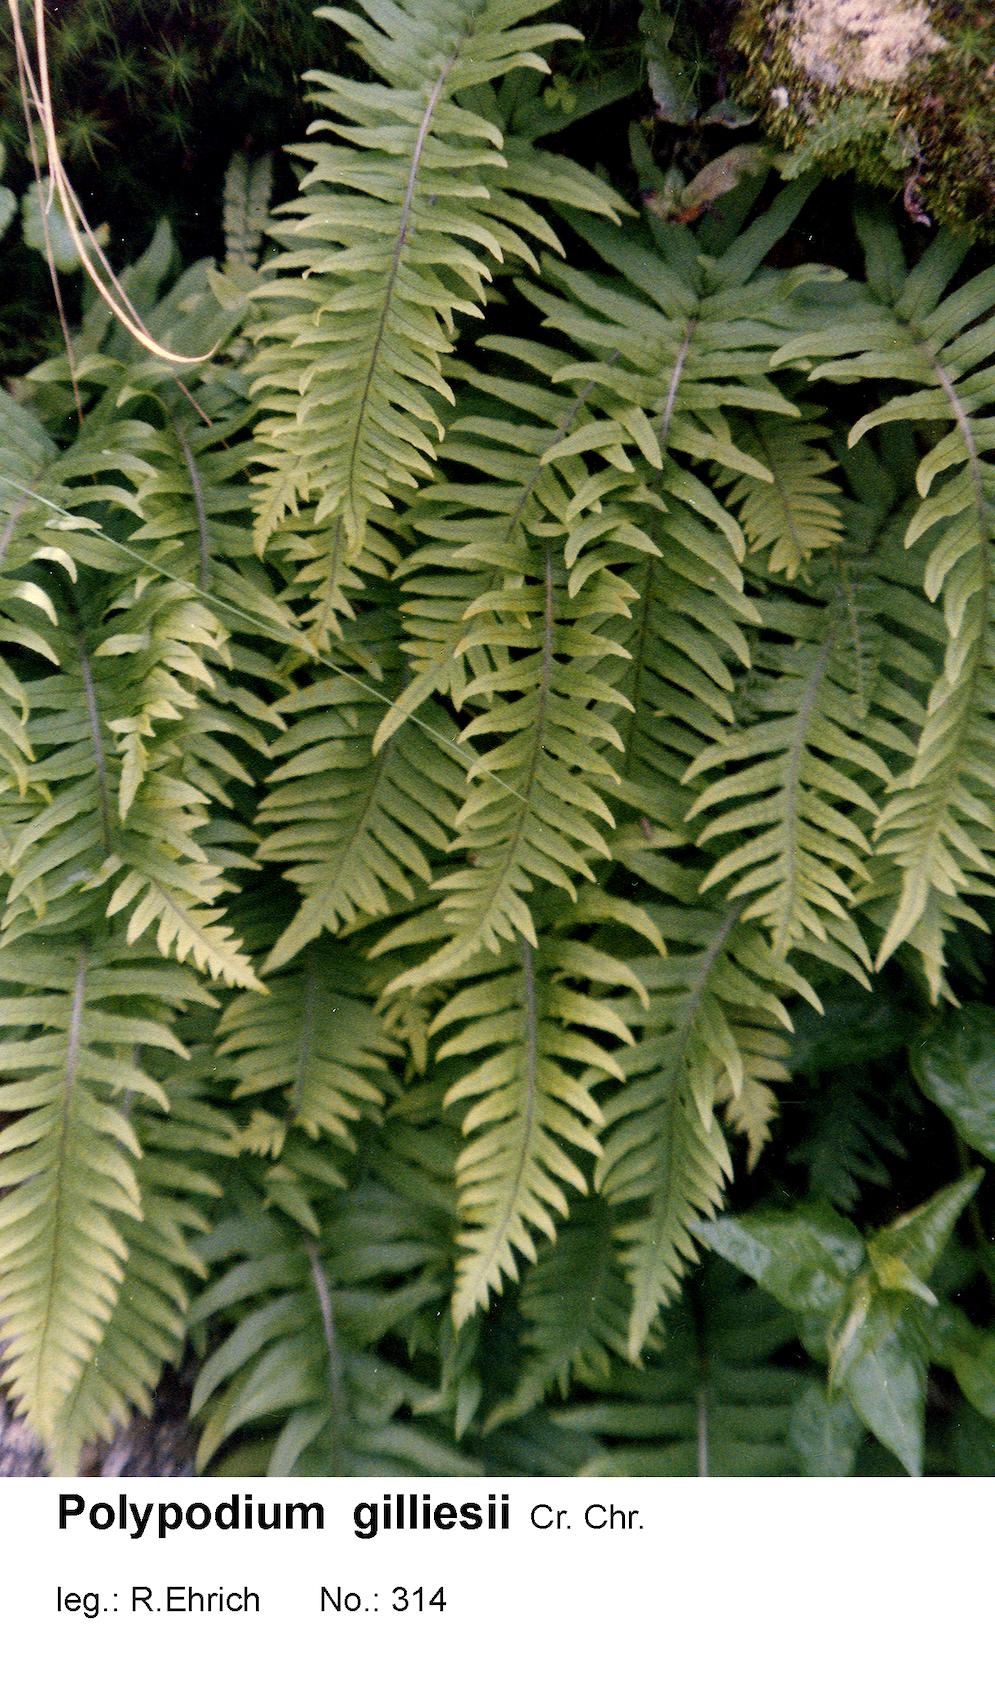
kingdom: Plantae
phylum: Tracheophyta
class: Polypodiopsida
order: Polypodiales
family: Polypodiaceae
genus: Serpocaulon
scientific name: Serpocaulon gilliesii
